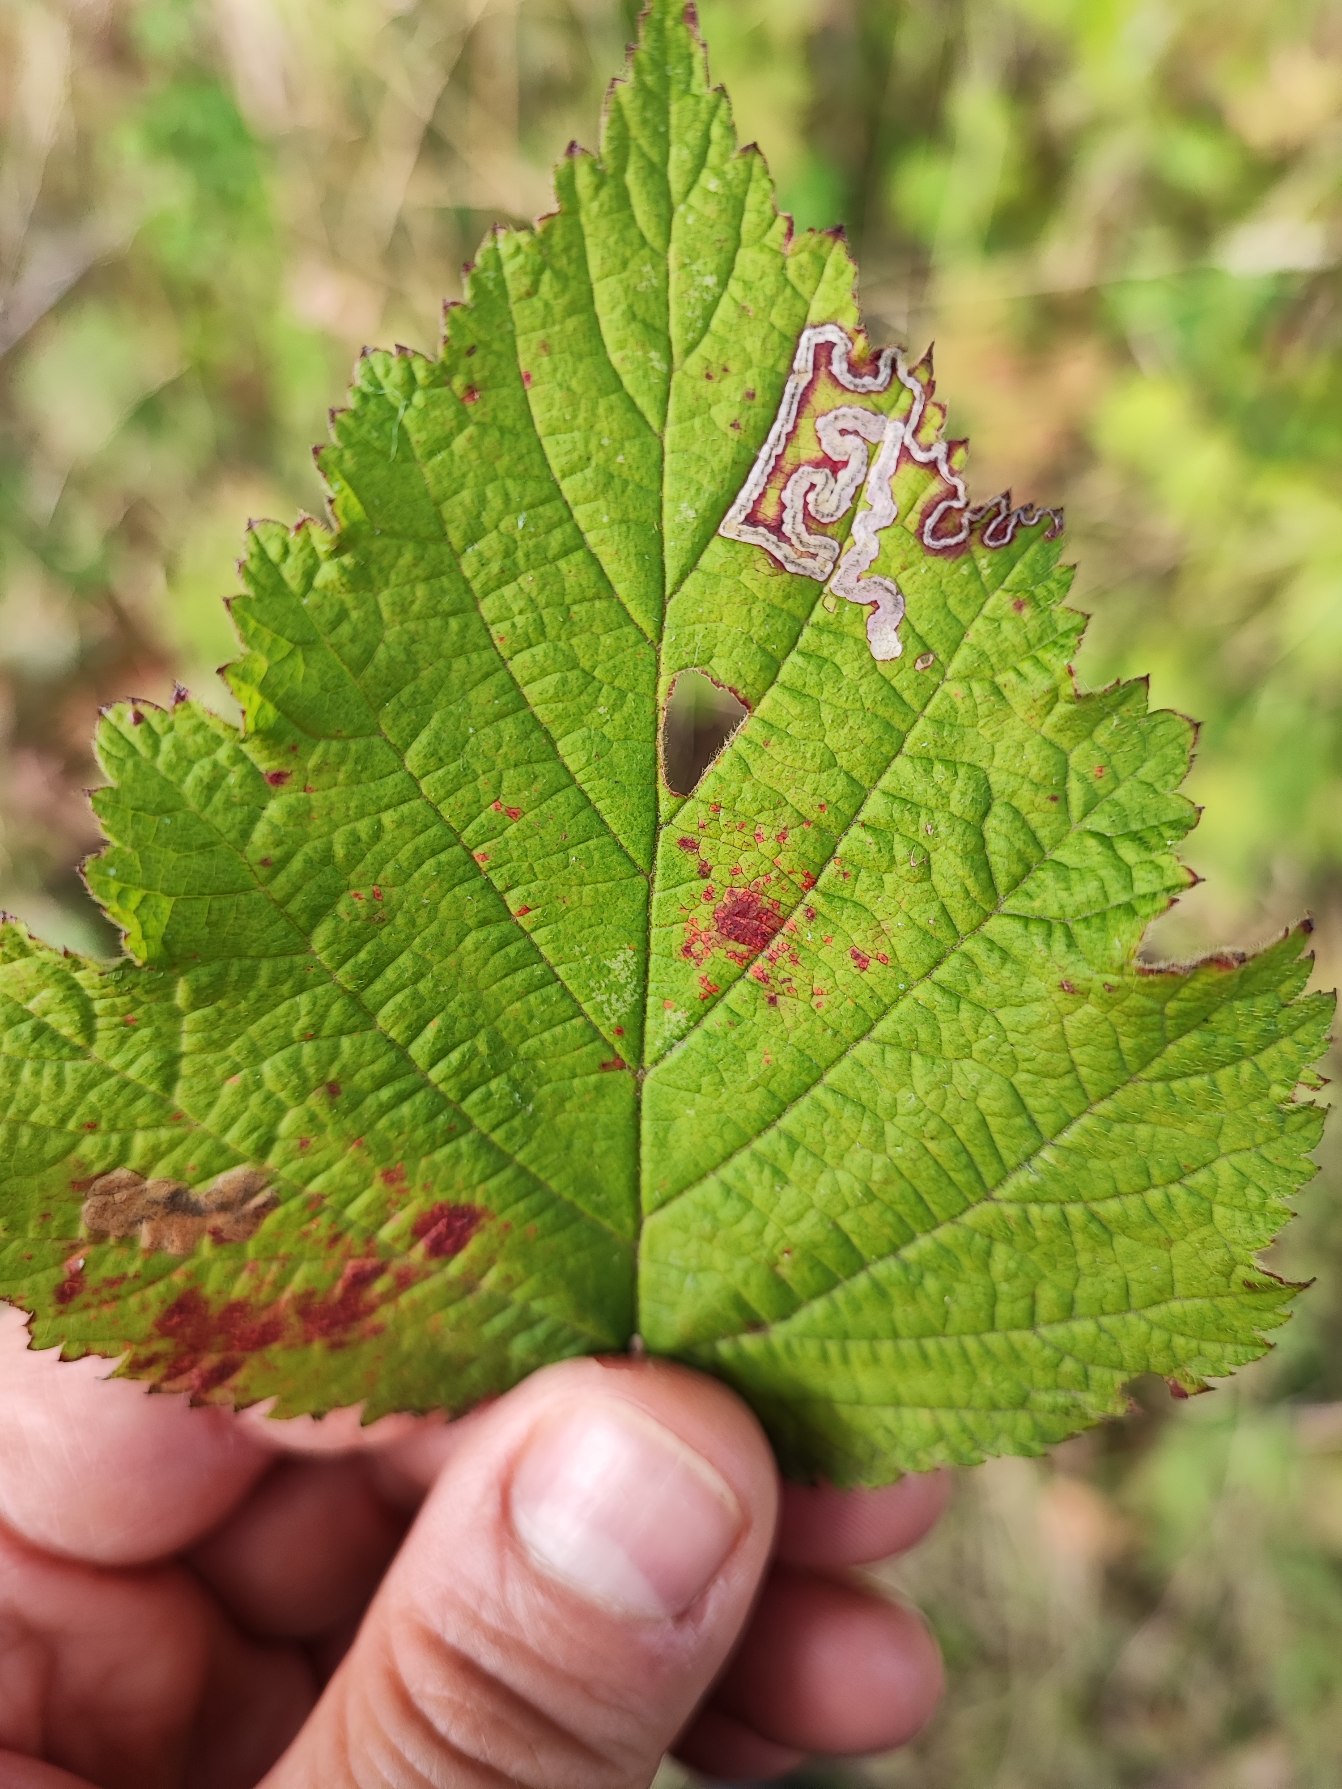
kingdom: Animalia
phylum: Arthropoda
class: Insecta
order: Lepidoptera
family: Nepticulidae
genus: Ectoedemia
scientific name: Ectoedemia rubivora
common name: Hindbærdværgmøl
